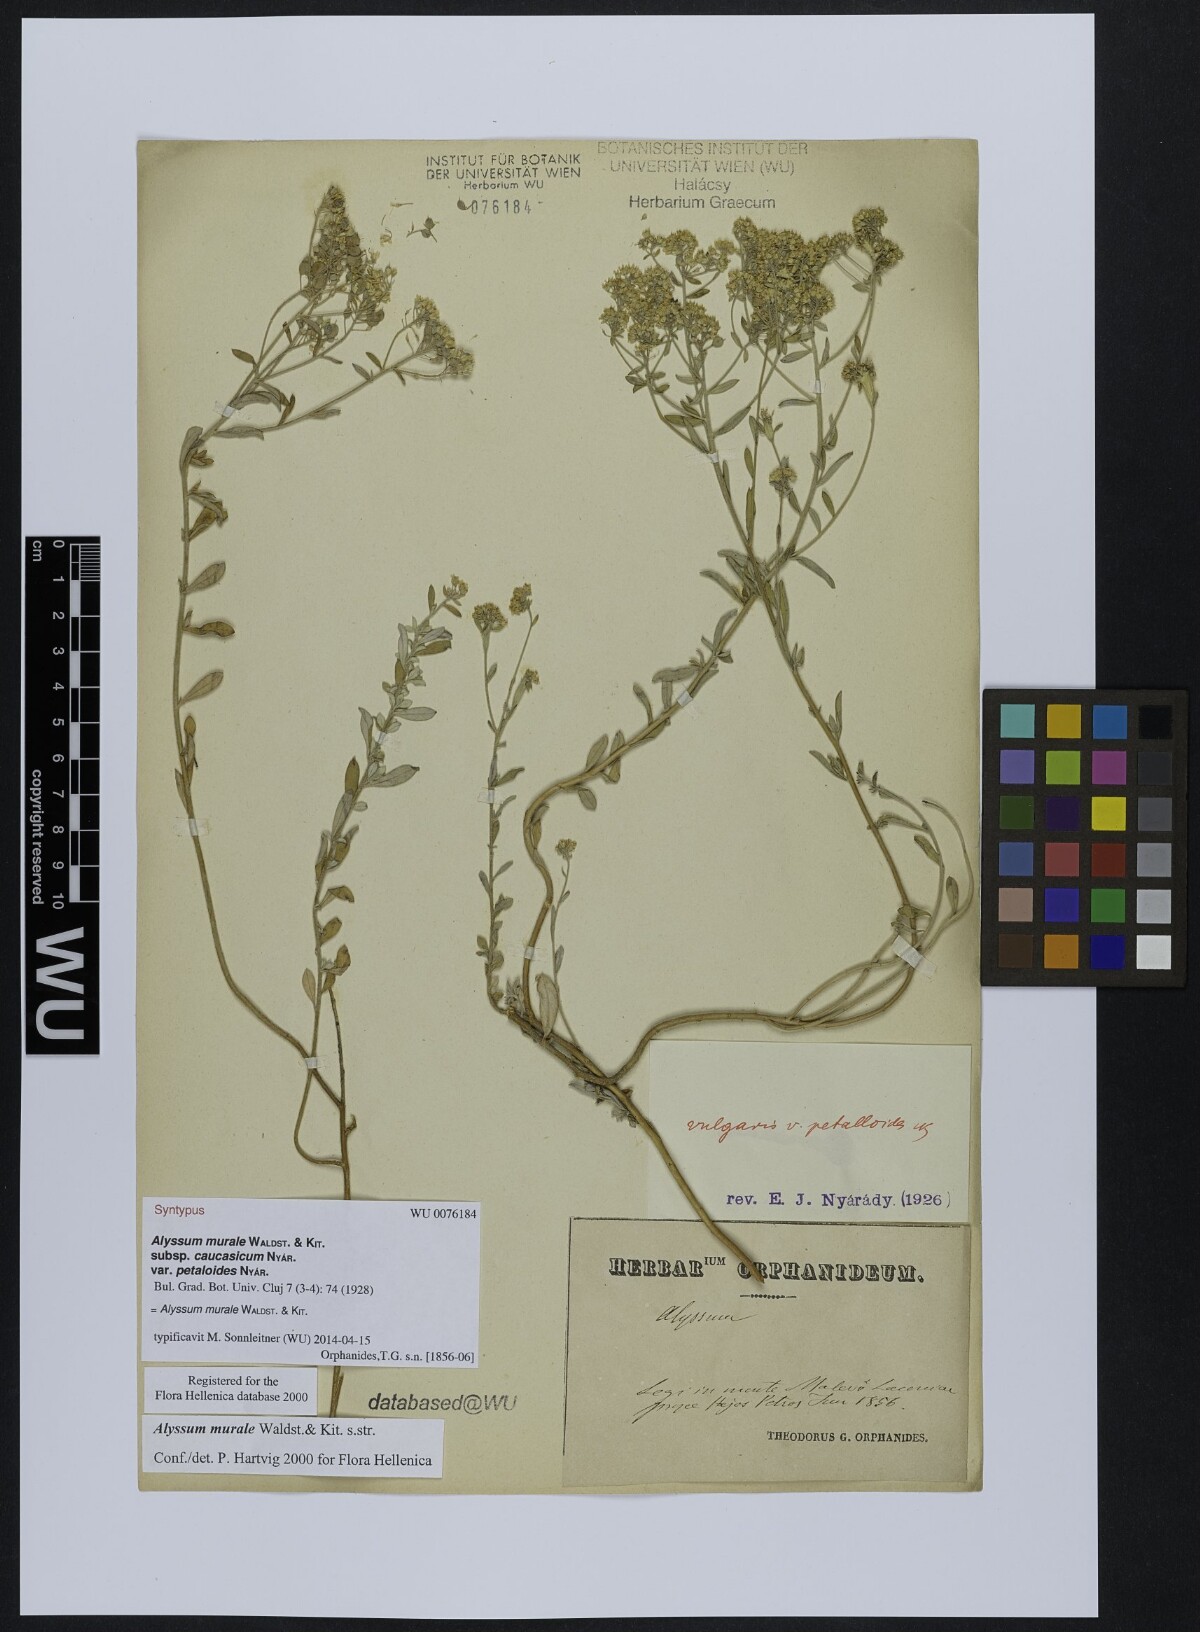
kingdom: Plantae
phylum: Tracheophyta
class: Magnoliopsida
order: Brassicales
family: Brassicaceae
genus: Odontarrhena
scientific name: Odontarrhena muralis
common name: Rock alyssum
